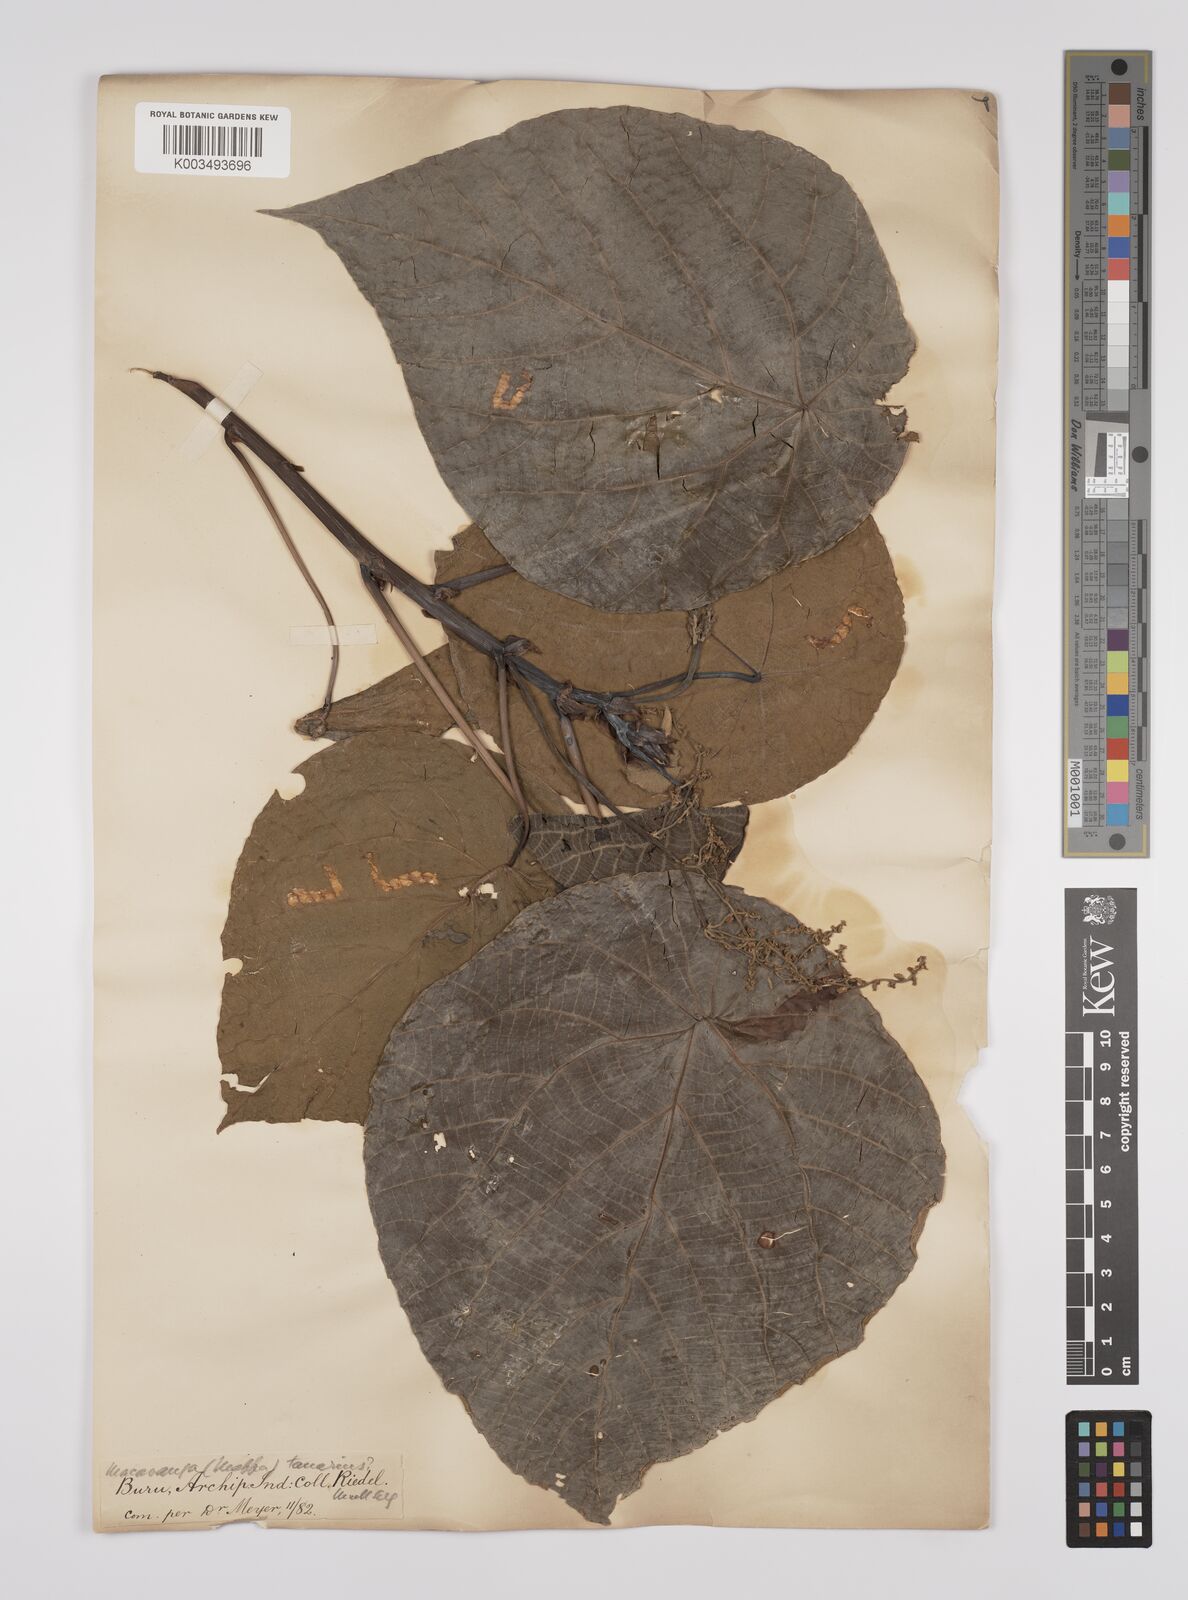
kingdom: Plantae
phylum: Tracheophyta
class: Magnoliopsida
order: Malpighiales
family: Euphorbiaceae
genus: Macaranga
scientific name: Macaranga tanarius
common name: Parasol leaf tree
